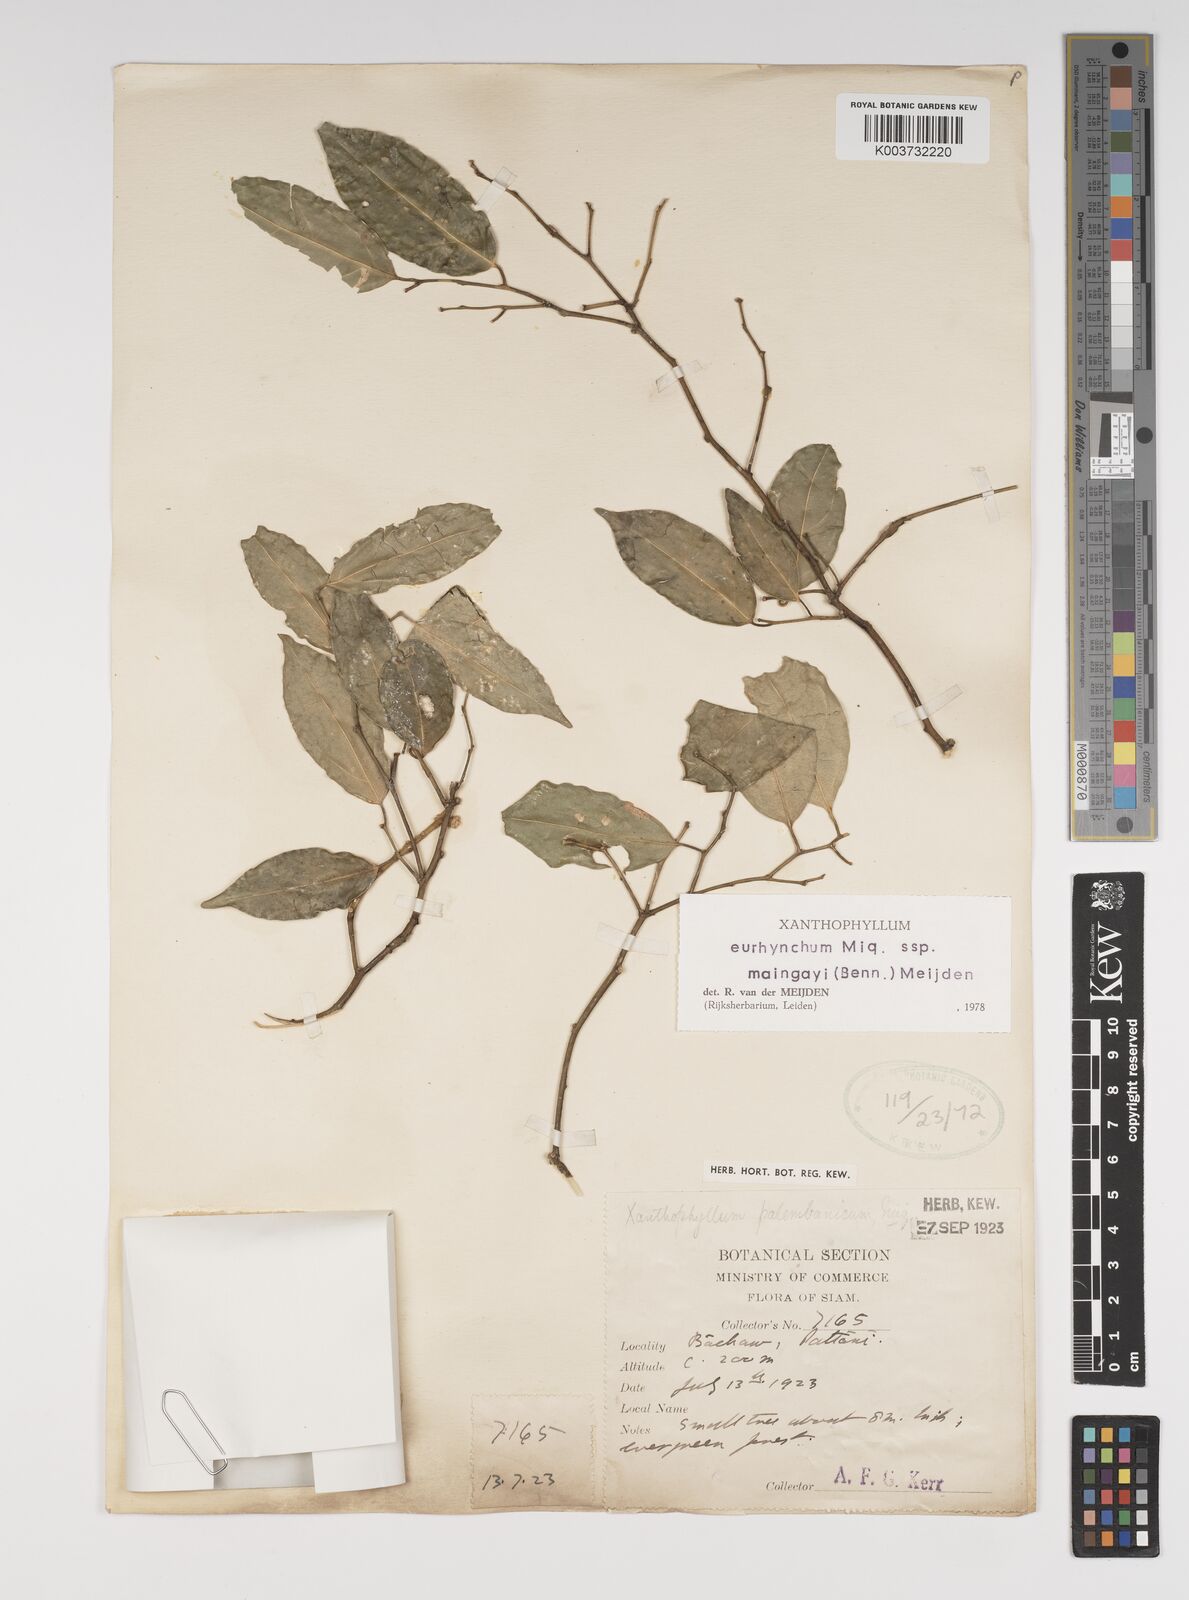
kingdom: Plantae
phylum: Tracheophyta
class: Magnoliopsida
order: Fabales
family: Polygalaceae
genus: Xanthophyllum
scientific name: Xanthophyllum eurhynchum
